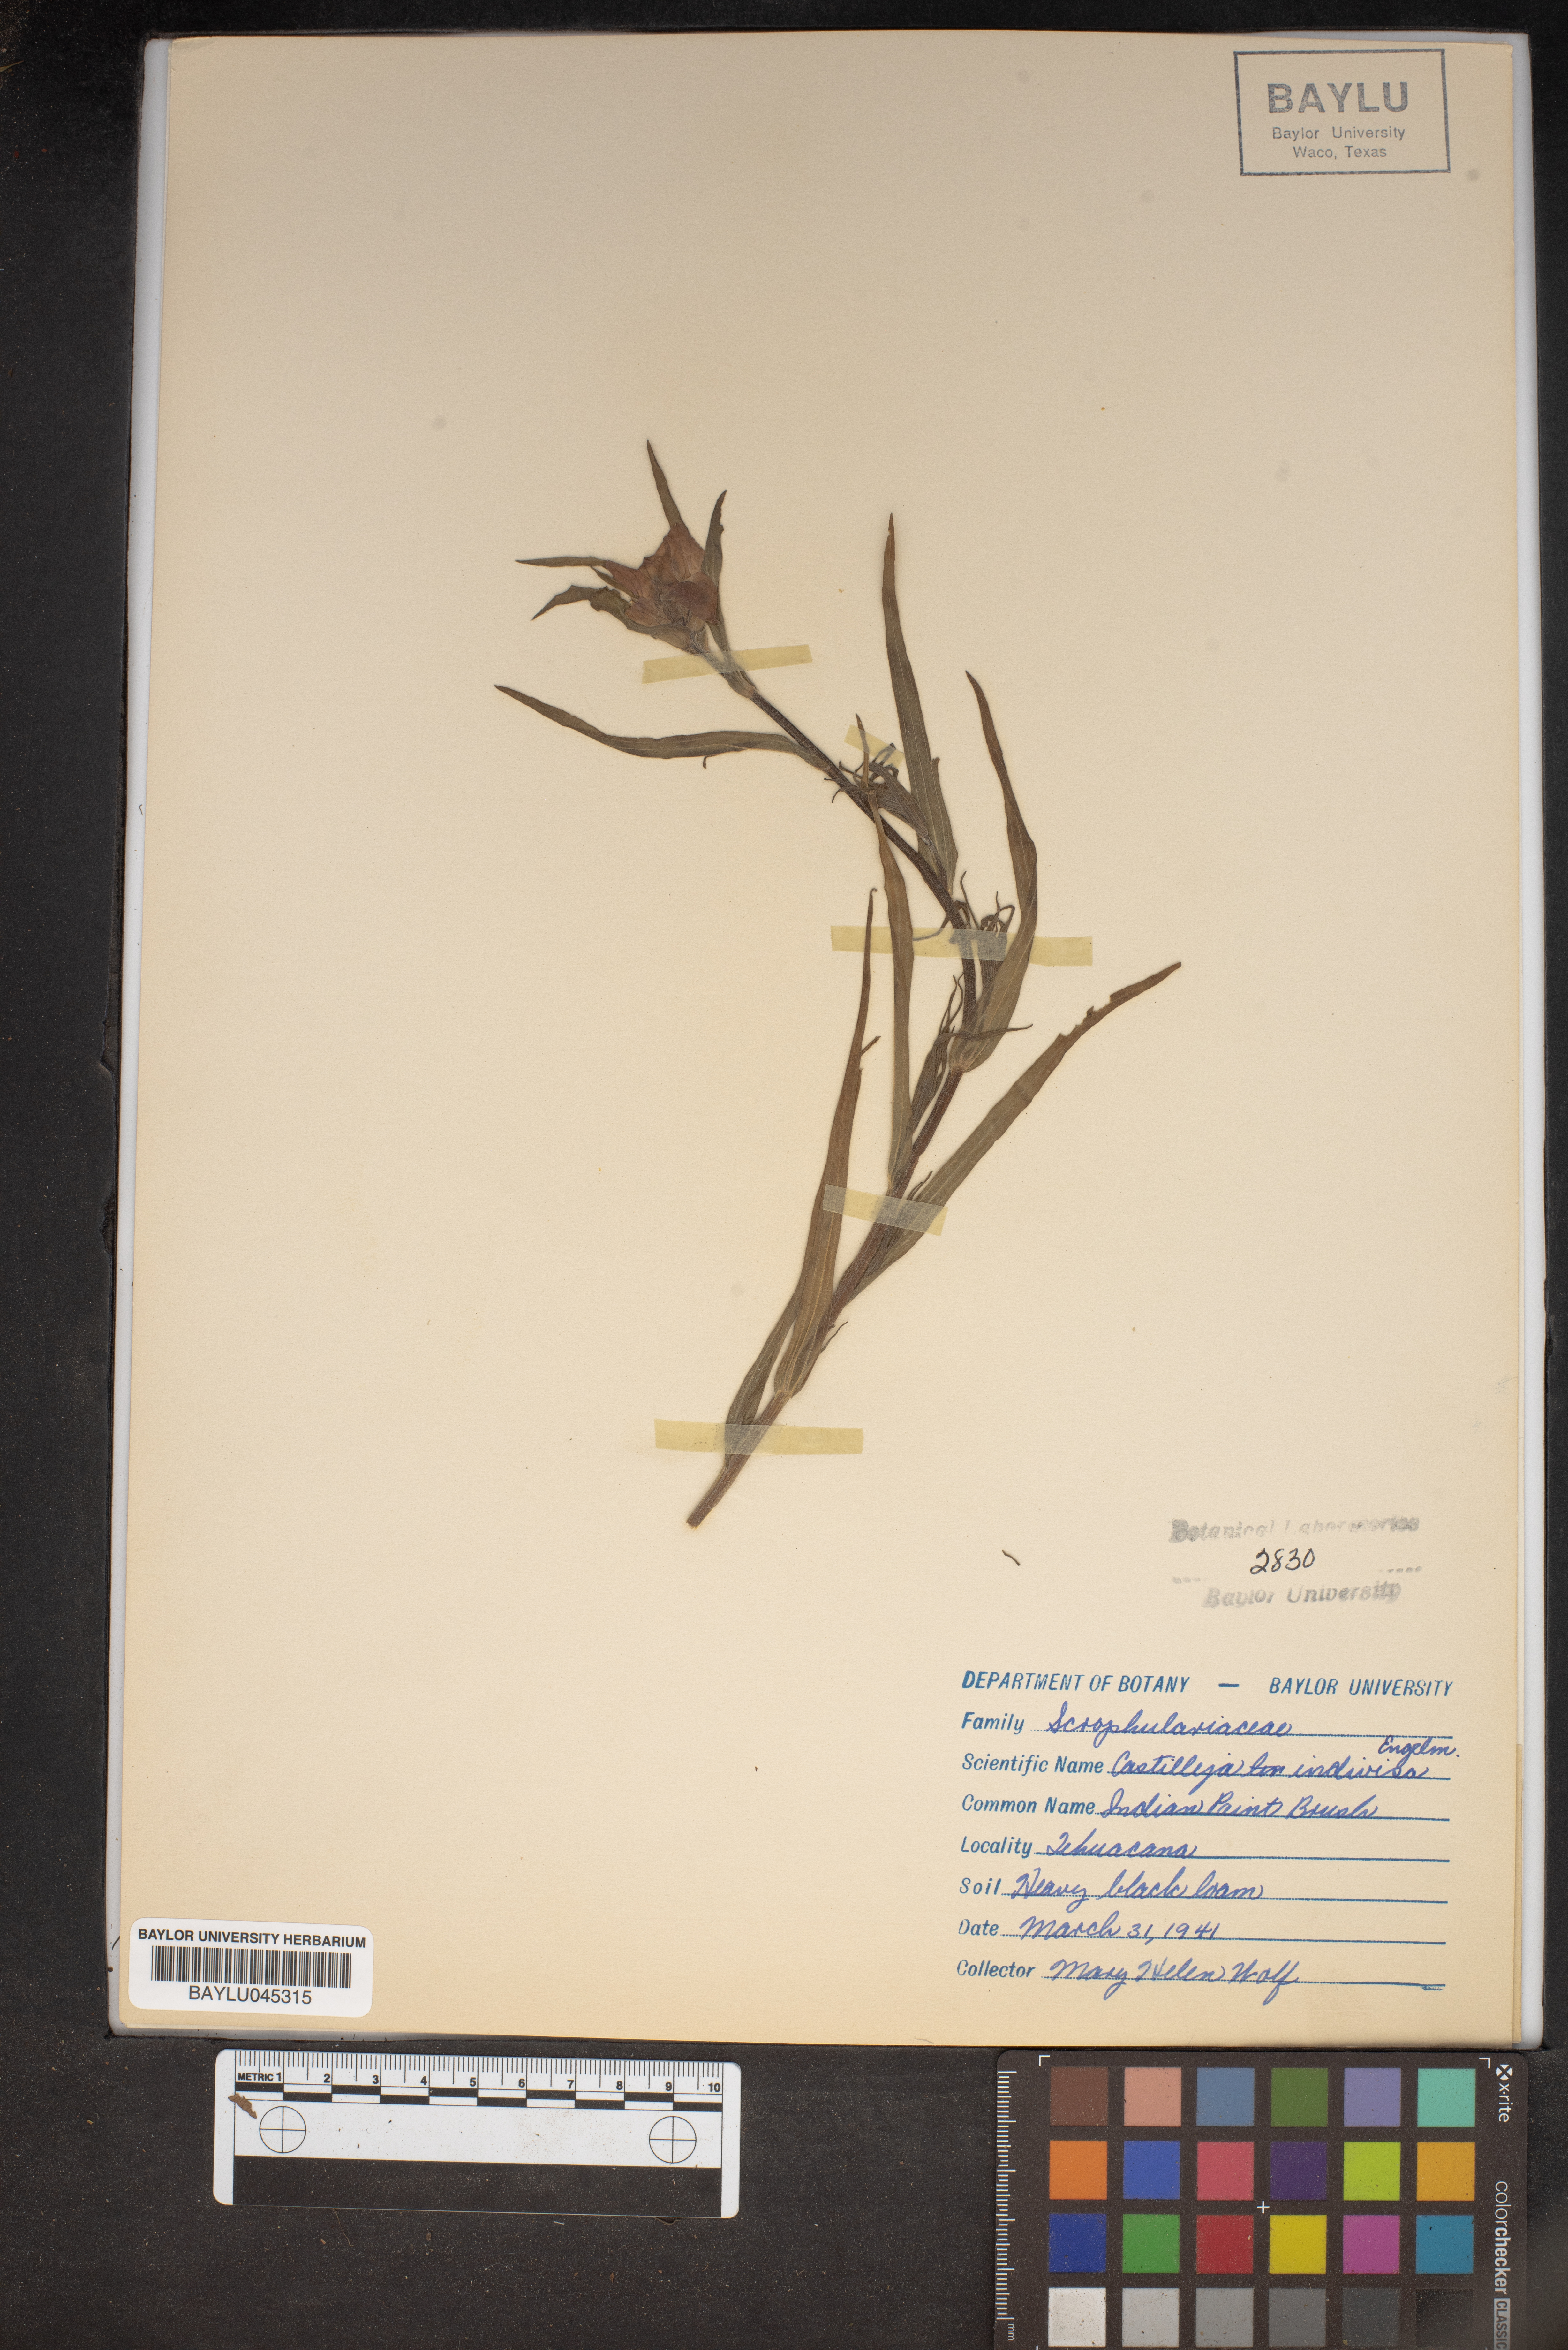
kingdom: Plantae
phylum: Tracheophyta
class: Magnoliopsida
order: Lamiales
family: Orobanchaceae
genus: Castilleja
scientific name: Castilleja indivisa
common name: Texas paintbrush
